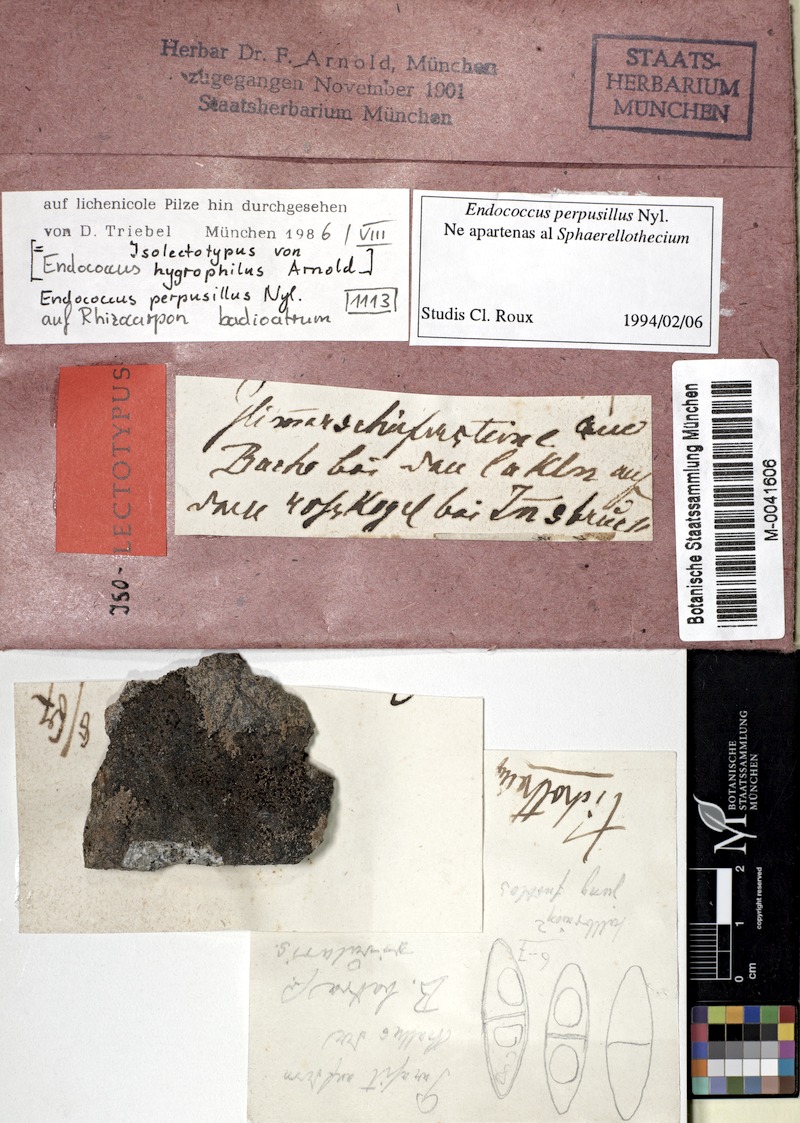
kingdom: Fungi
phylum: Ascomycota
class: Lecanoromycetes
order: Rhizocarpales
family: Rhizocarpaceae
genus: Rhizocarpon
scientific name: Rhizocarpon badioatrum
